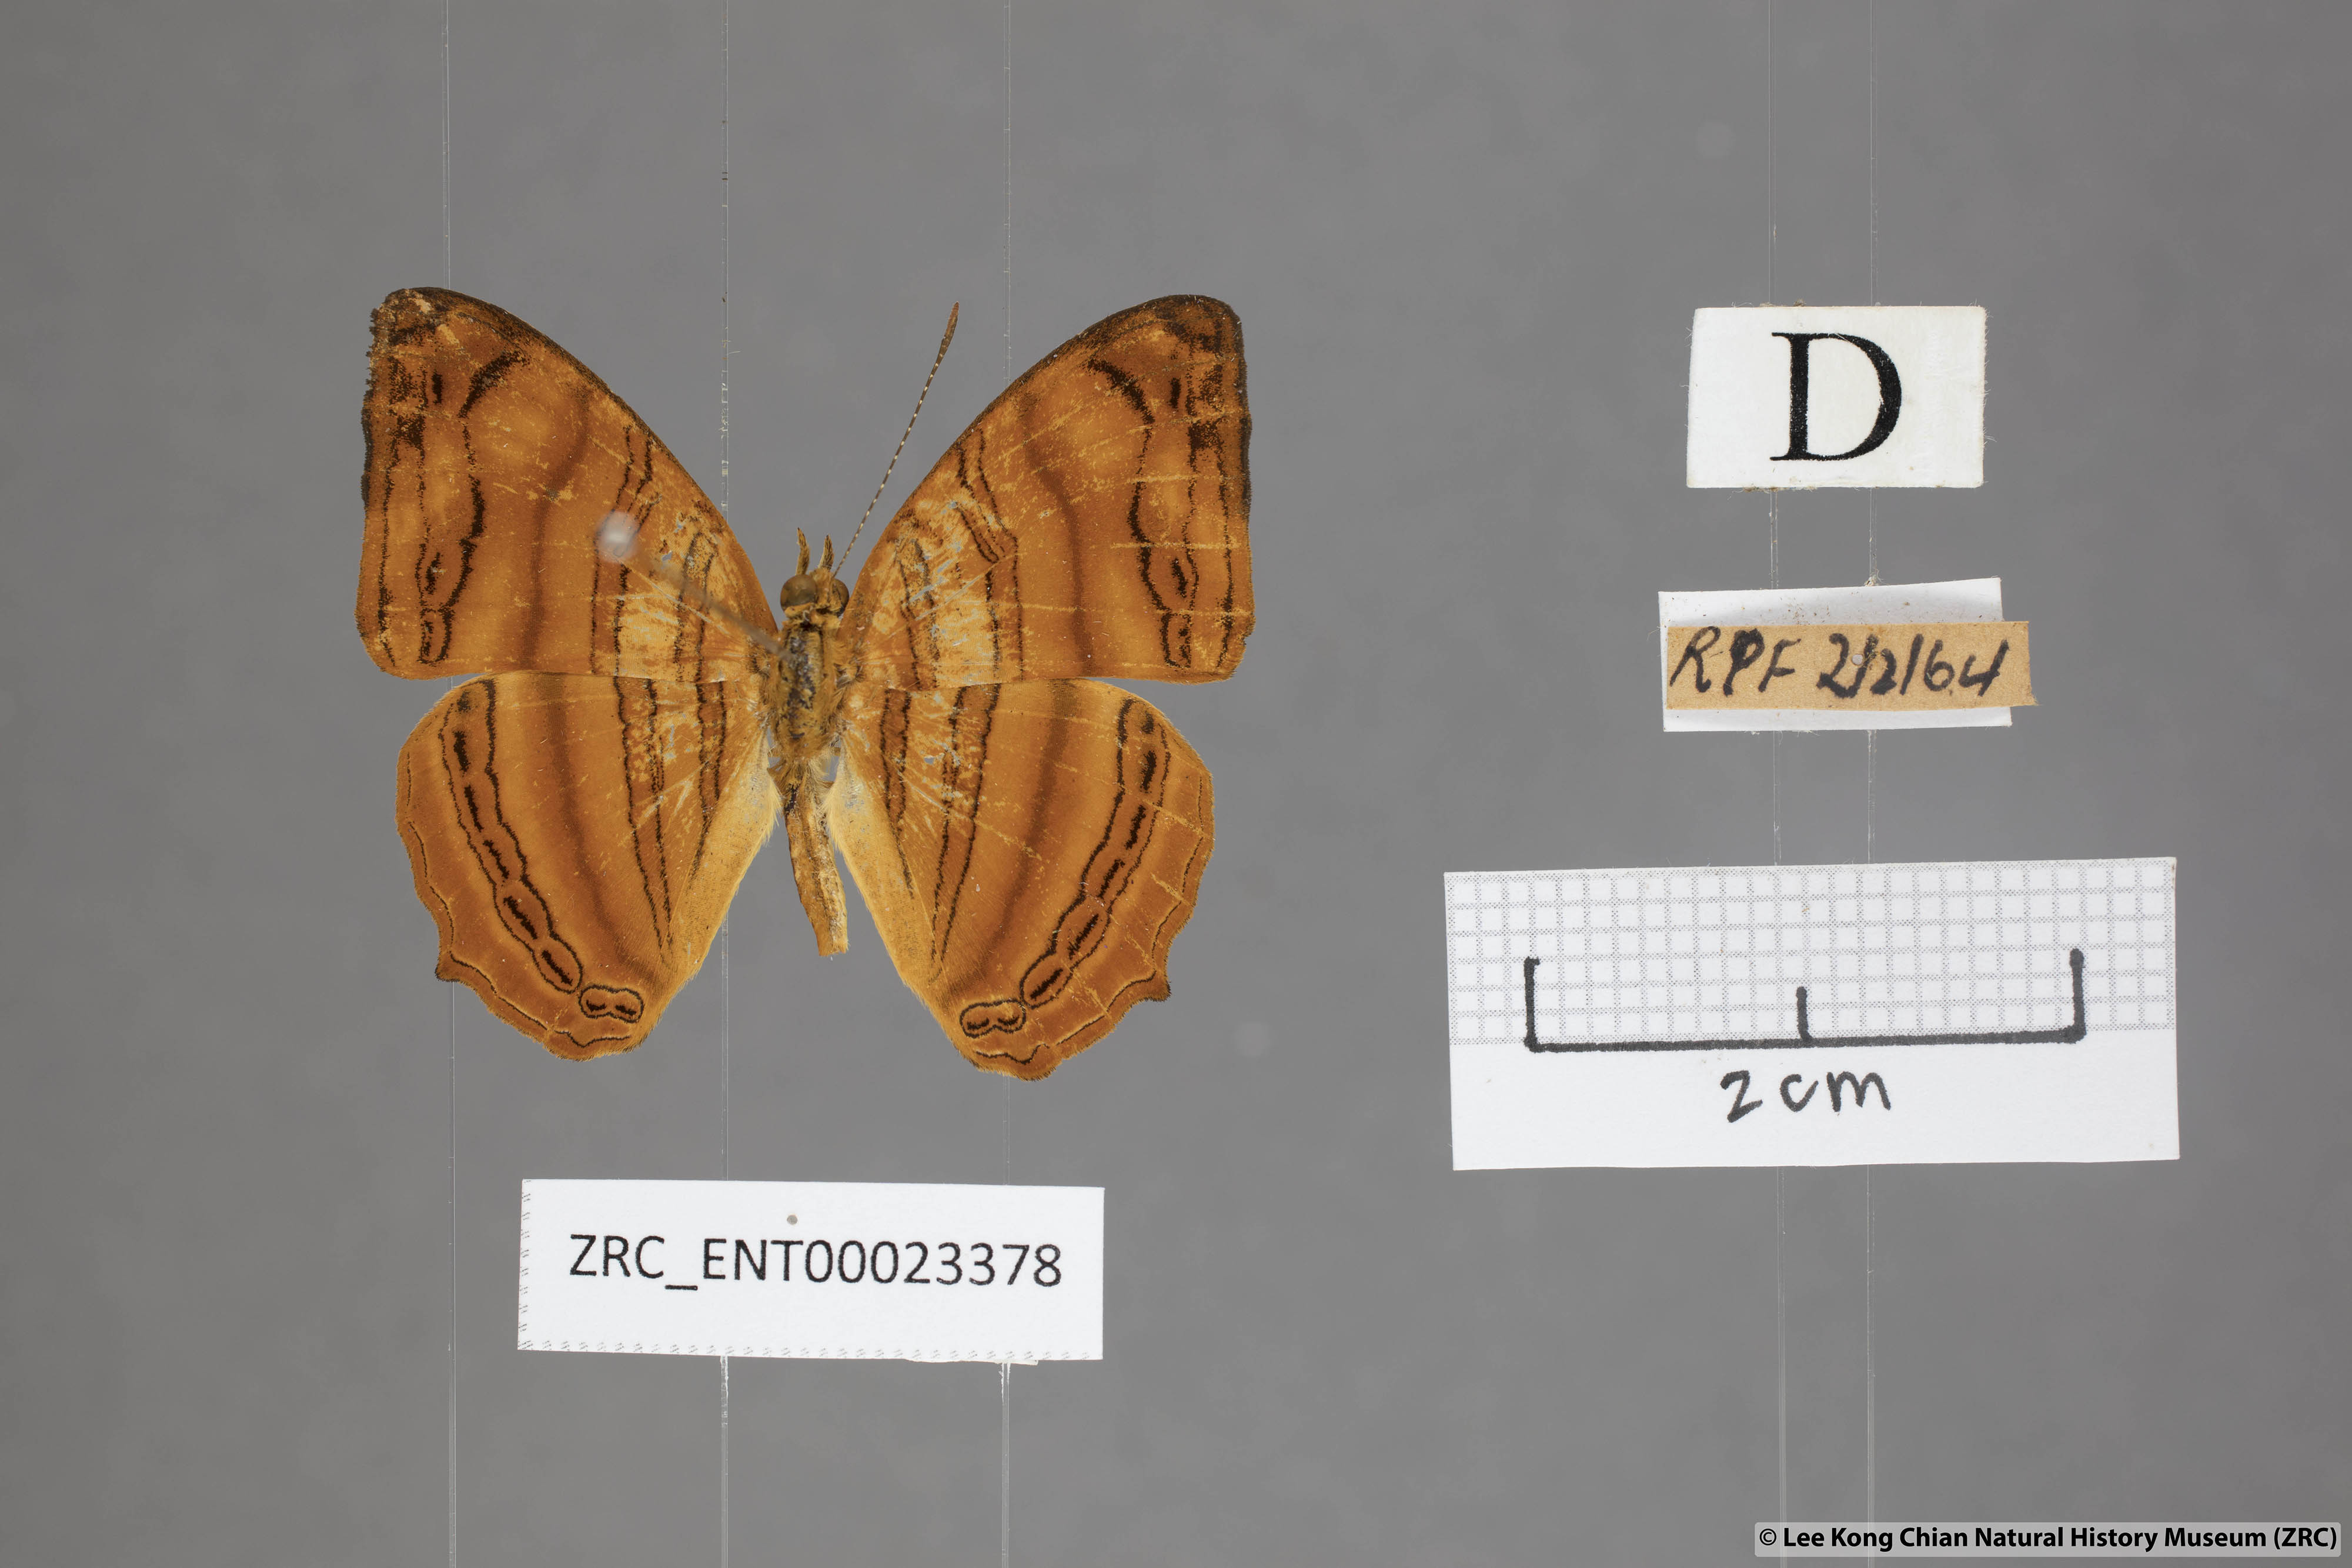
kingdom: Animalia
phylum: Arthropoda
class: Insecta
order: Lepidoptera
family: Nymphalidae
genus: Chersonesia
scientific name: Chersonesia rahria
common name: Wavy maplet
